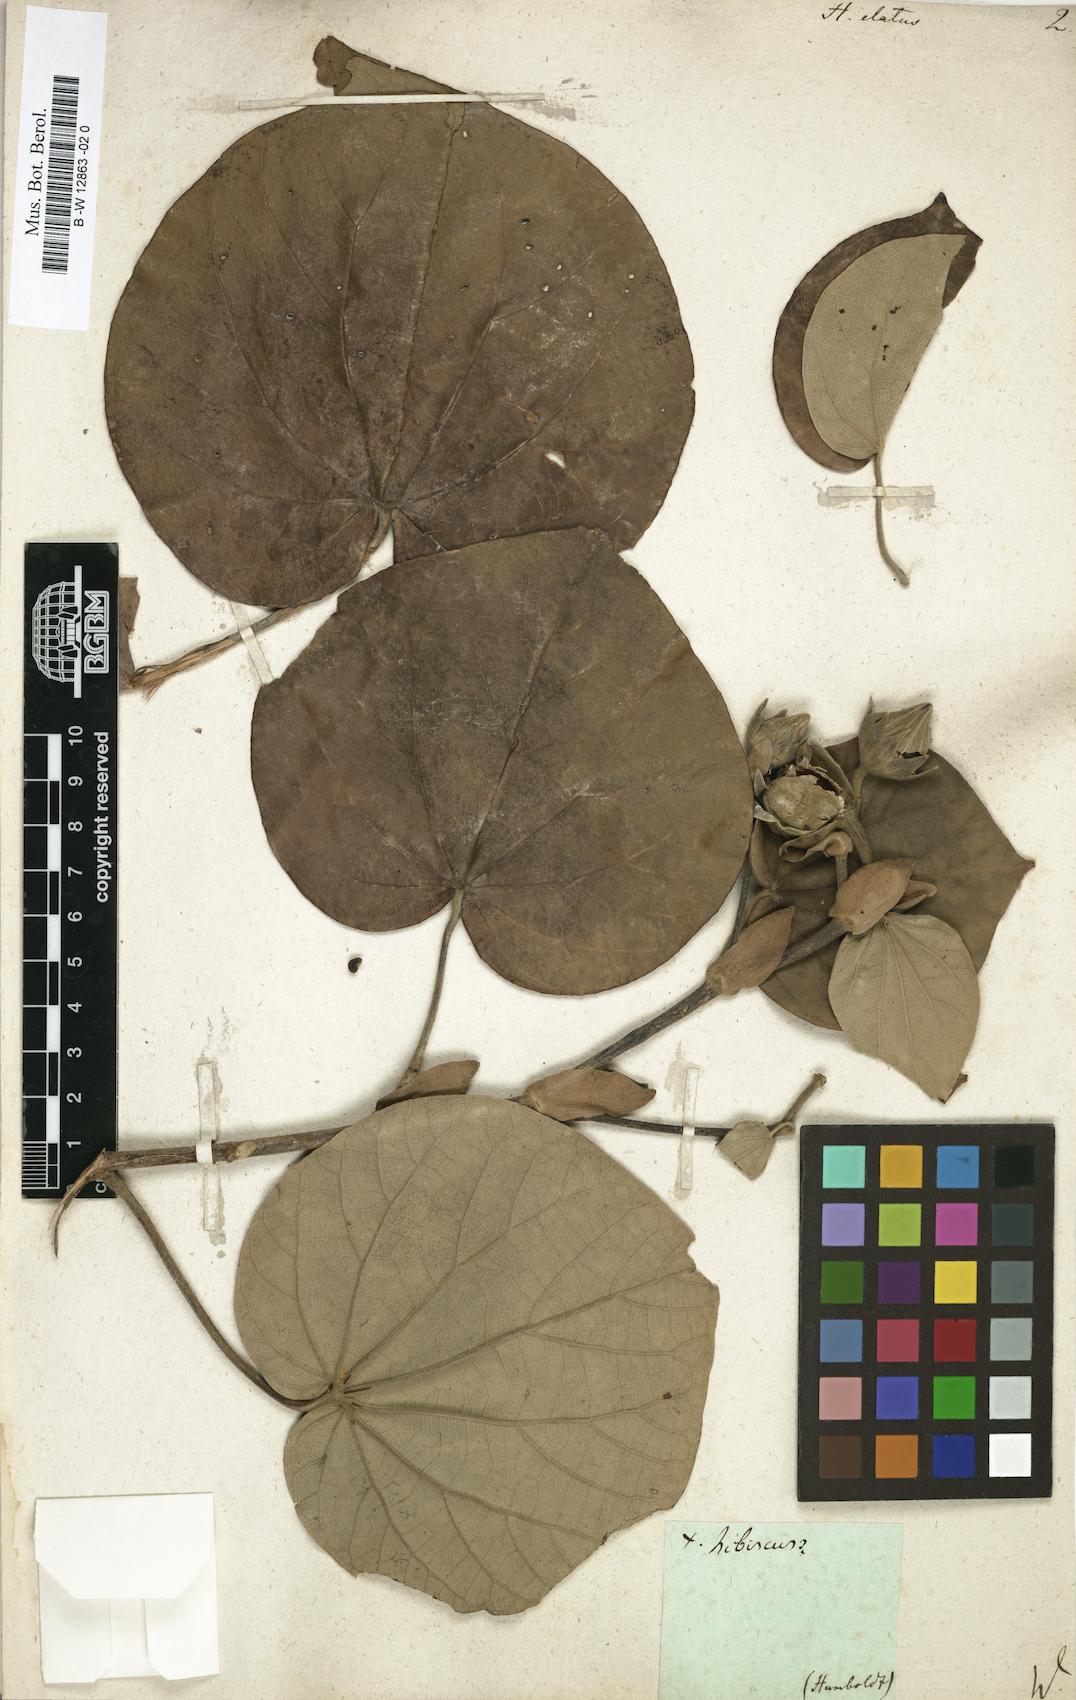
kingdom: Plantae
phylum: Tracheophyta
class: Magnoliopsida
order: Malvales
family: Malvaceae
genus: Talipariti
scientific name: Talipariti elatum
